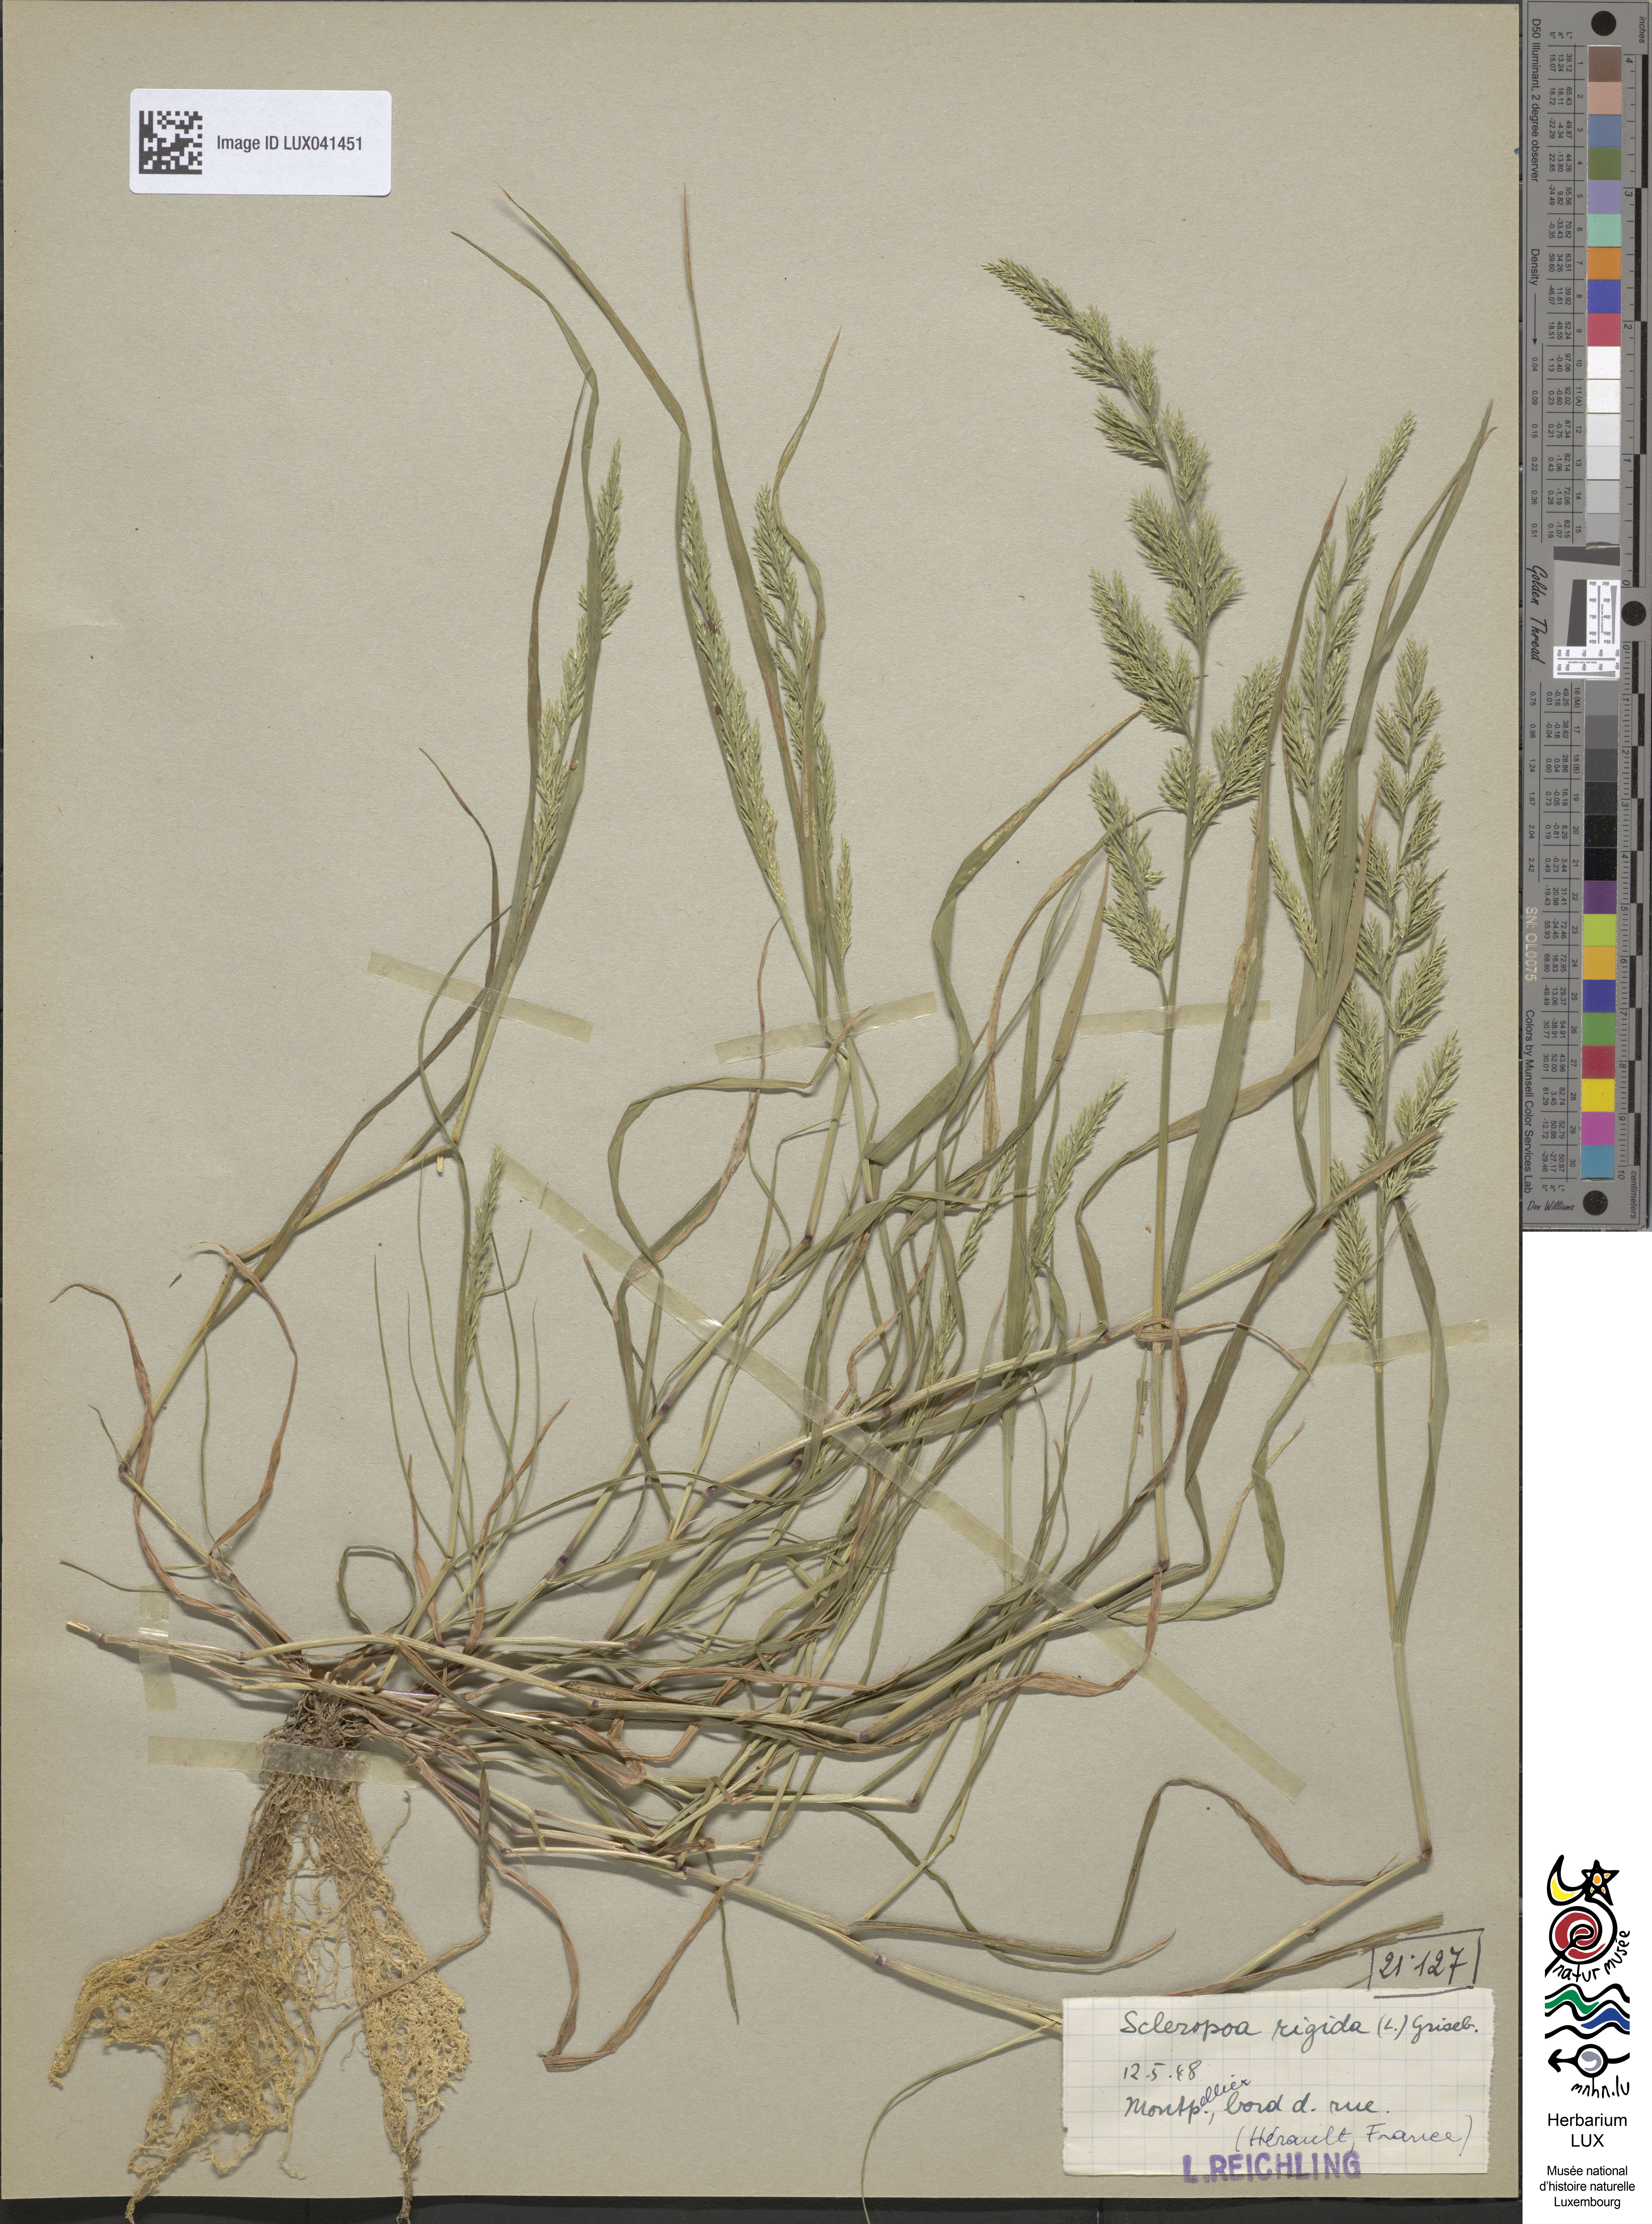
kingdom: Plantae
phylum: Tracheophyta
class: Liliopsida
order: Poales
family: Poaceae
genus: Catapodium
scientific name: Catapodium rigidum
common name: Fern-grass
